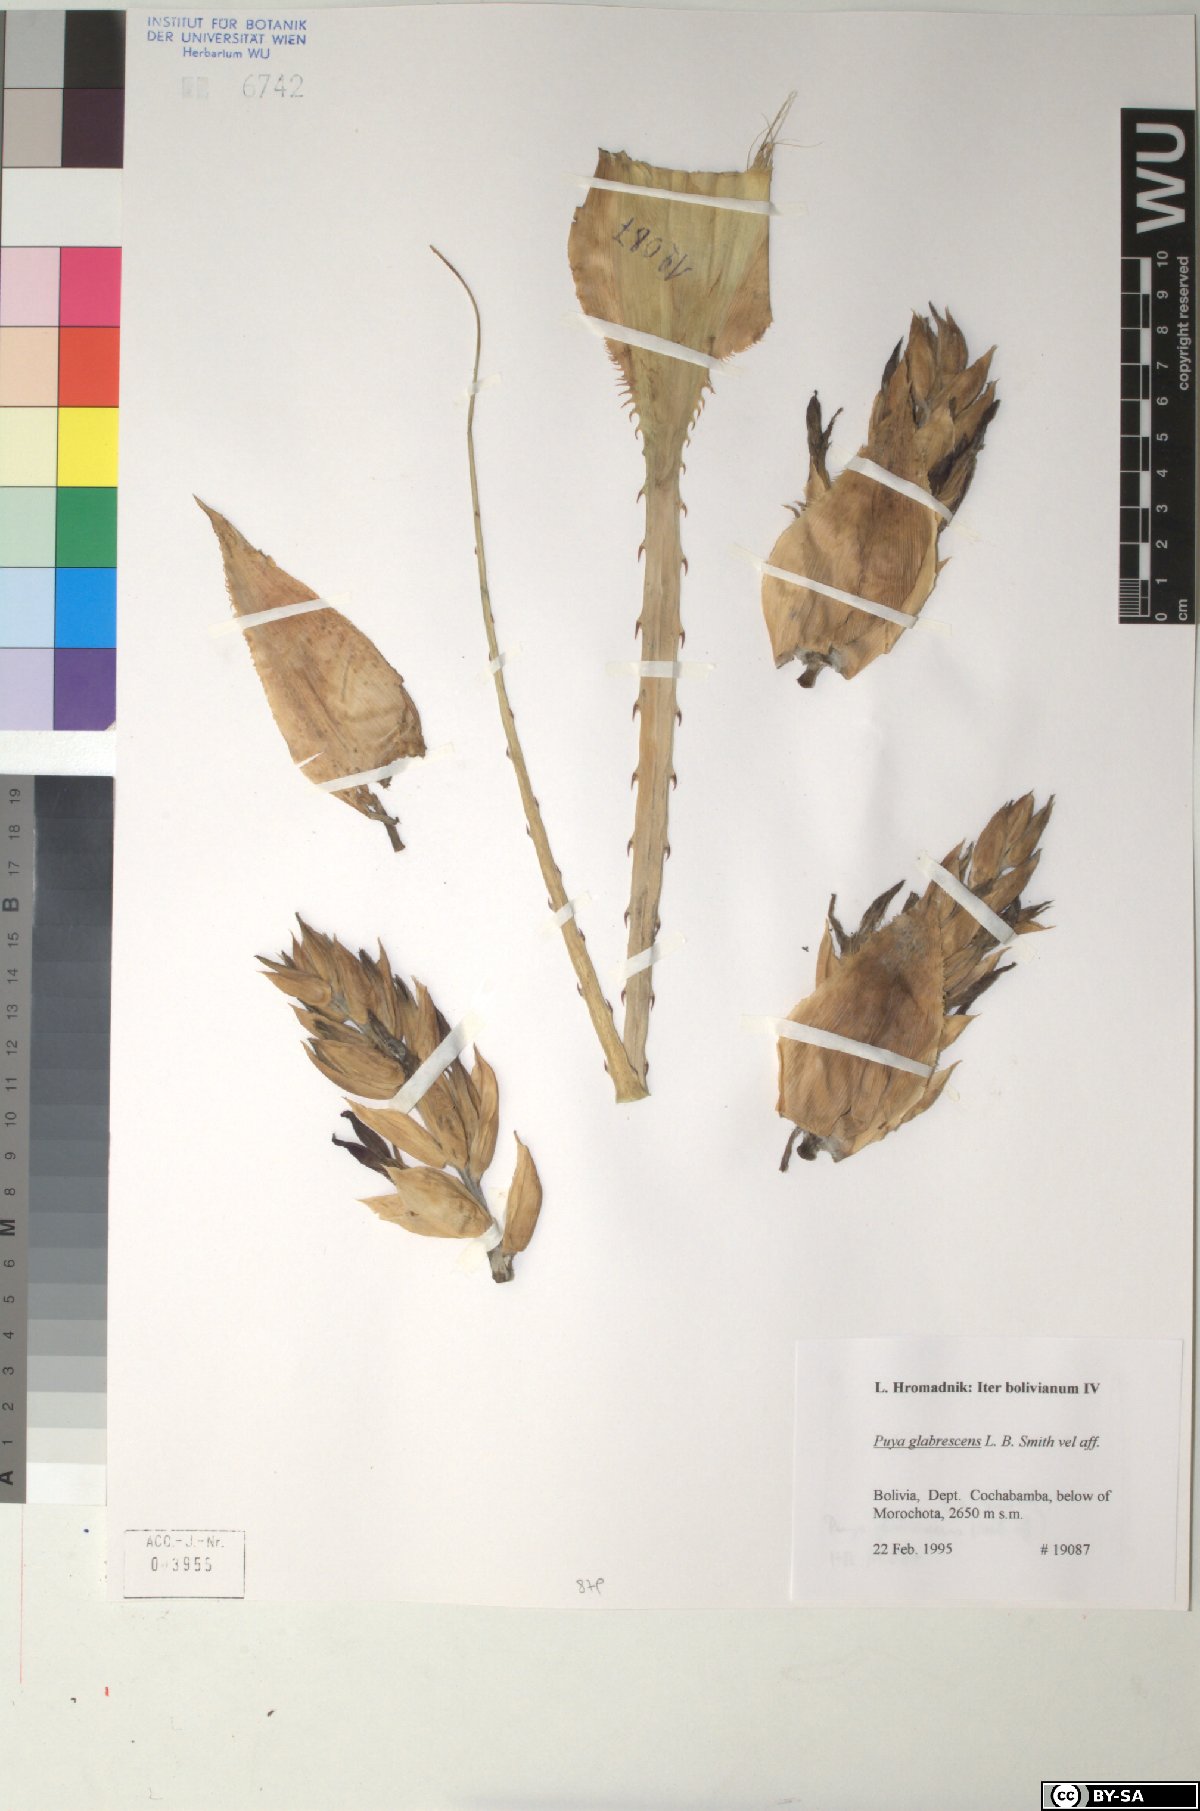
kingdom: Plantae
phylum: Tracheophyta
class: Liliopsida
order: Poales
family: Bromeliaceae
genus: Puya
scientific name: Puya glabrescens
